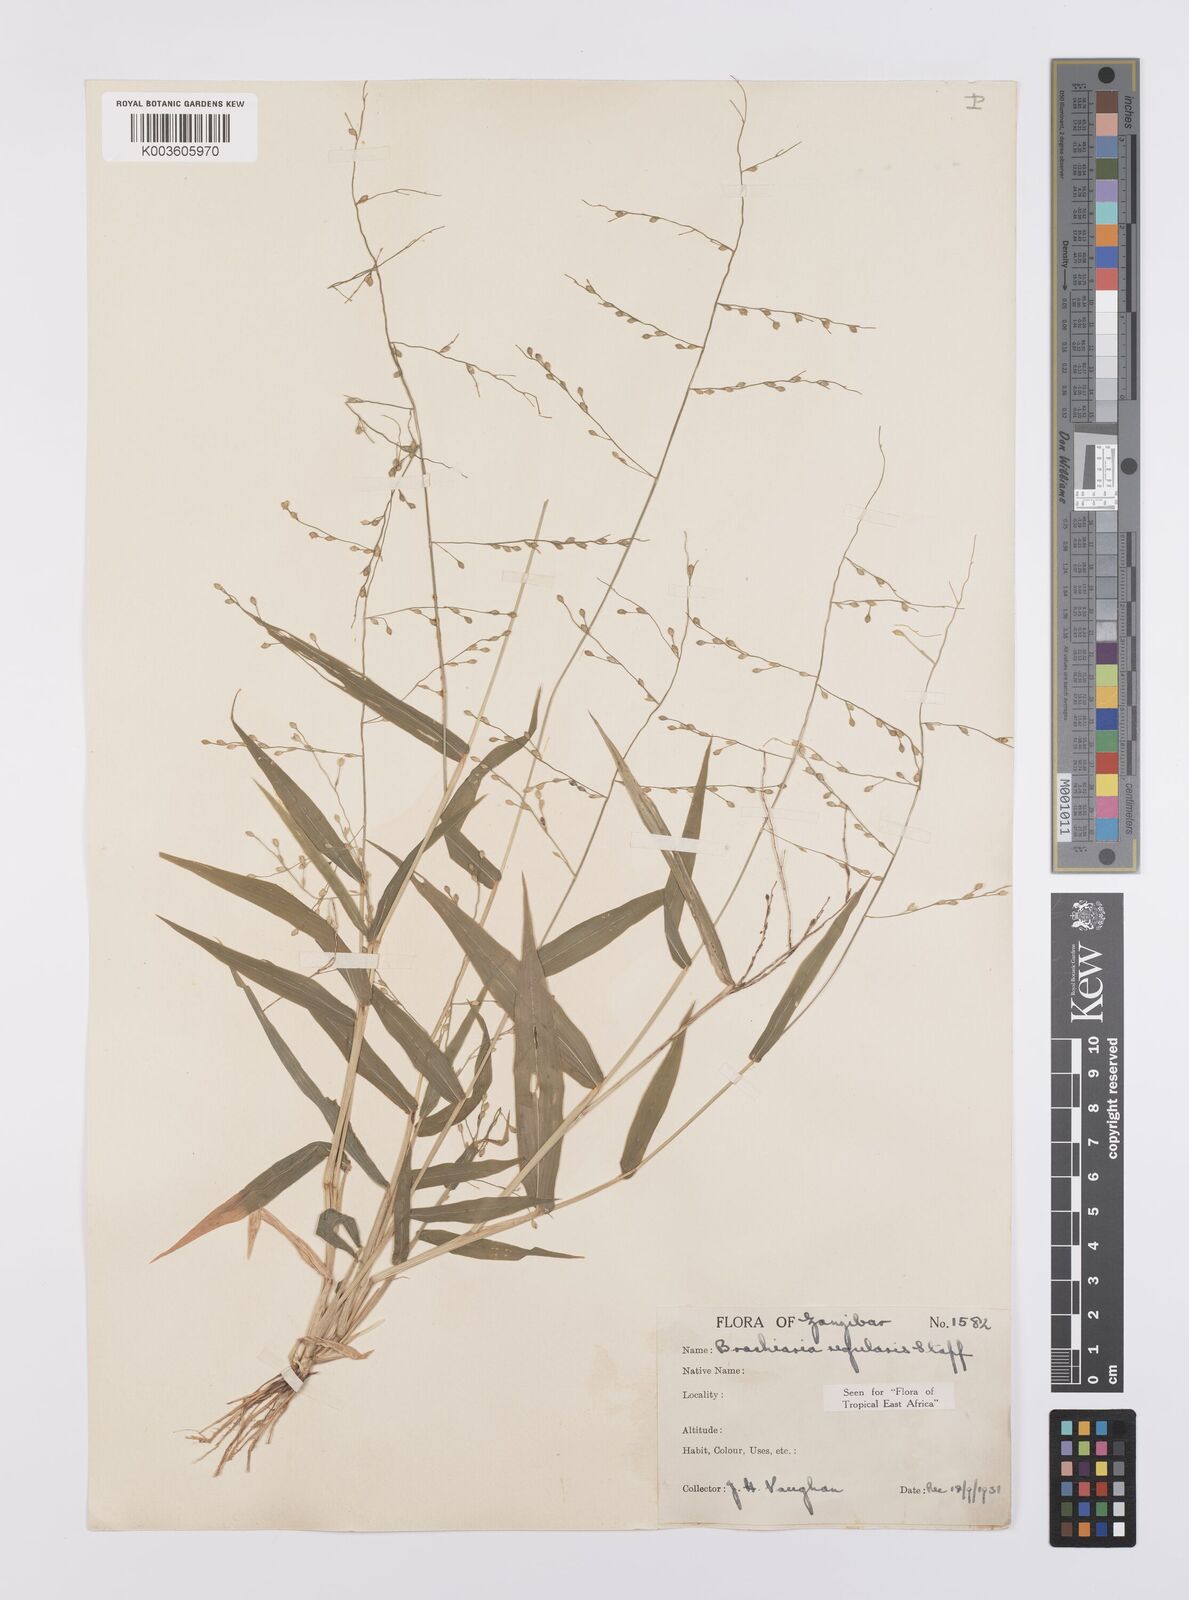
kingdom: Plantae
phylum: Tracheophyta
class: Liliopsida
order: Poales
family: Poaceae
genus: Urochloa
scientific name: Urochloa deflexa
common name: Guinea millet
